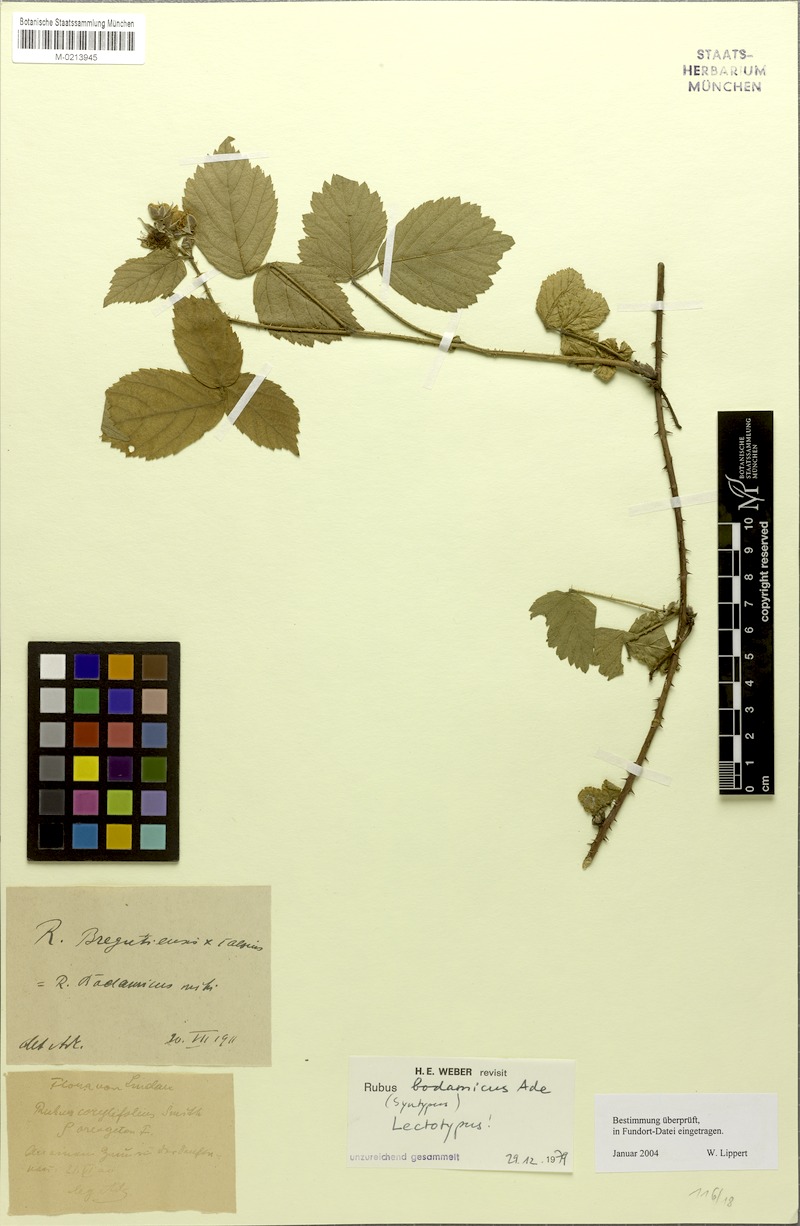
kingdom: Plantae
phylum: Tracheophyta
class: Magnoliopsida
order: Rosales
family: Rosaceae
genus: Rubus
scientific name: Rubus bodamicus
